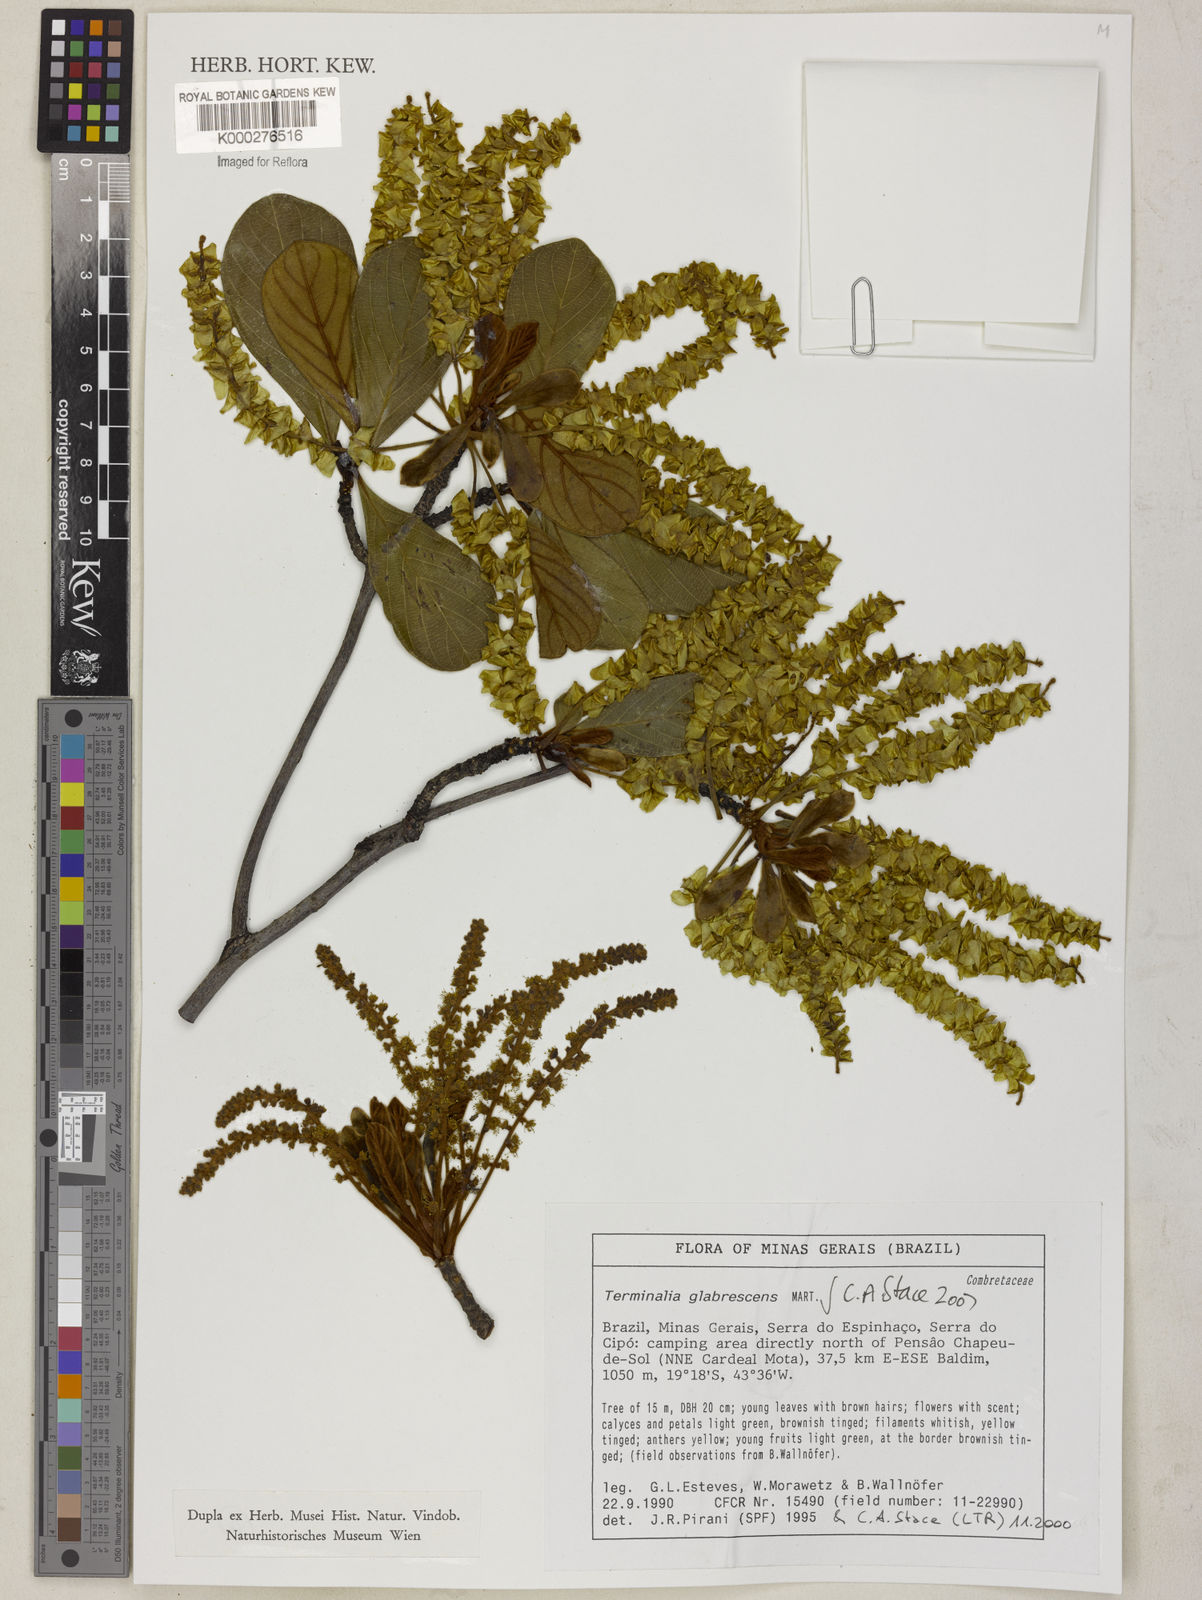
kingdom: Plantae
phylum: Tracheophyta
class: Magnoliopsida
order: Myrtales
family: Combretaceae
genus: Terminalia
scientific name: Terminalia glabrescens
